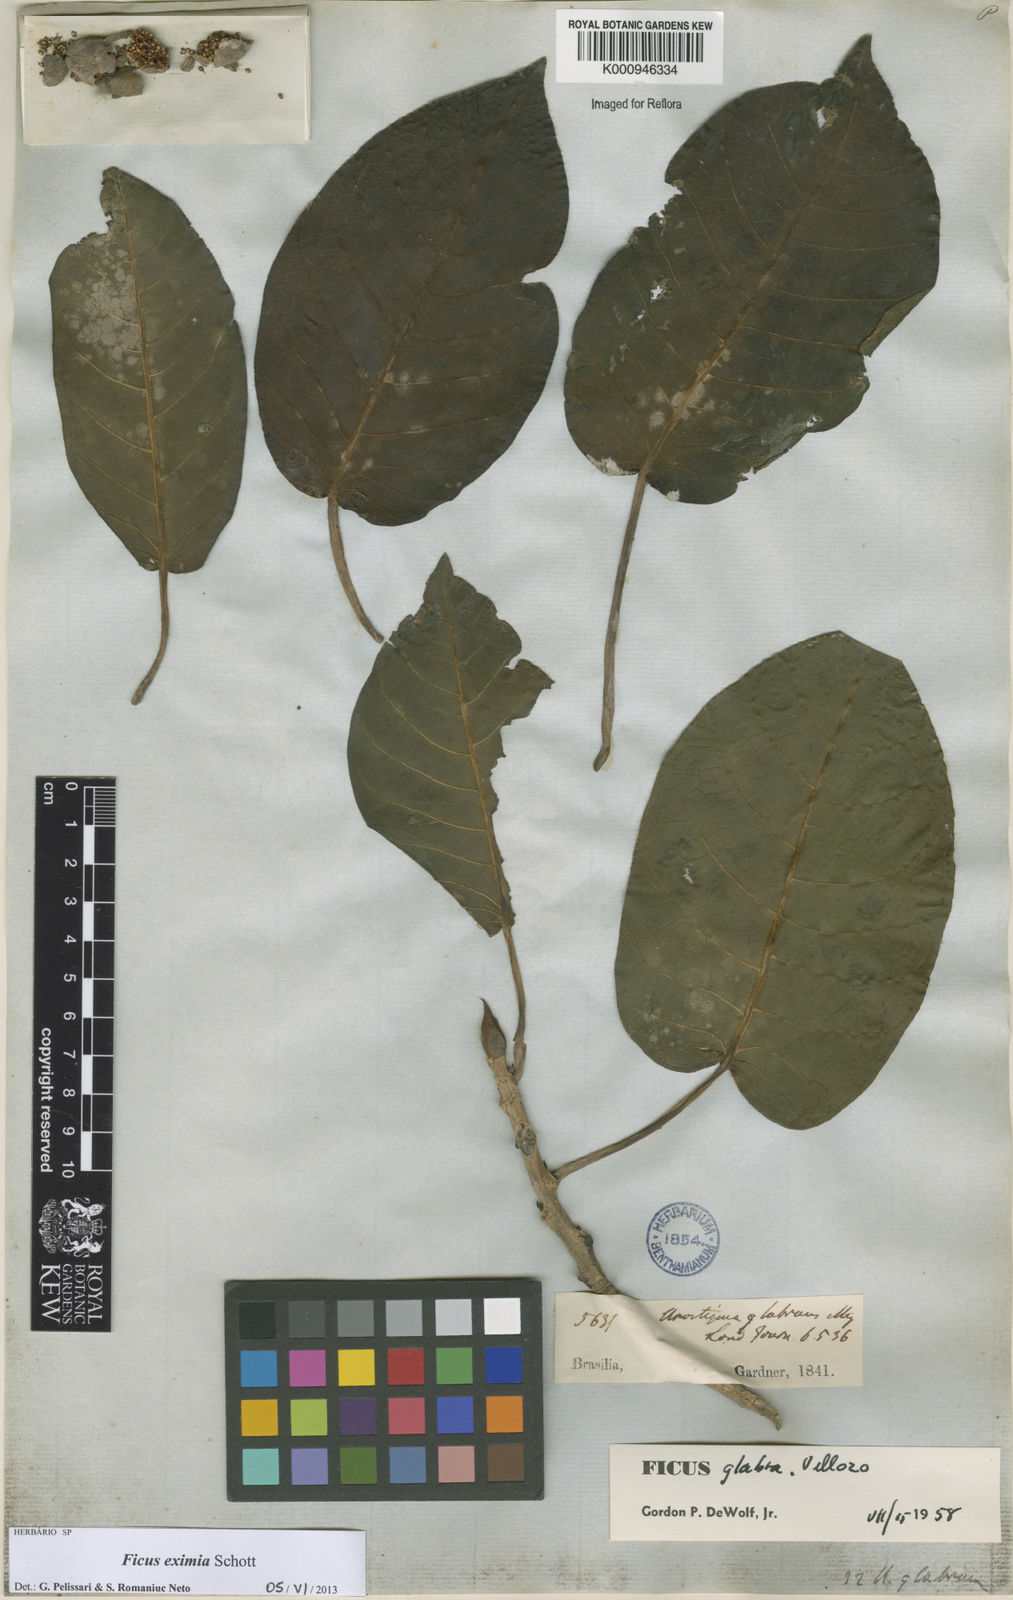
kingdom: Plantae
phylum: Tracheophyta
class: Magnoliopsida
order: Rosales
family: Moraceae
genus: Ficus
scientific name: Ficus eximia
